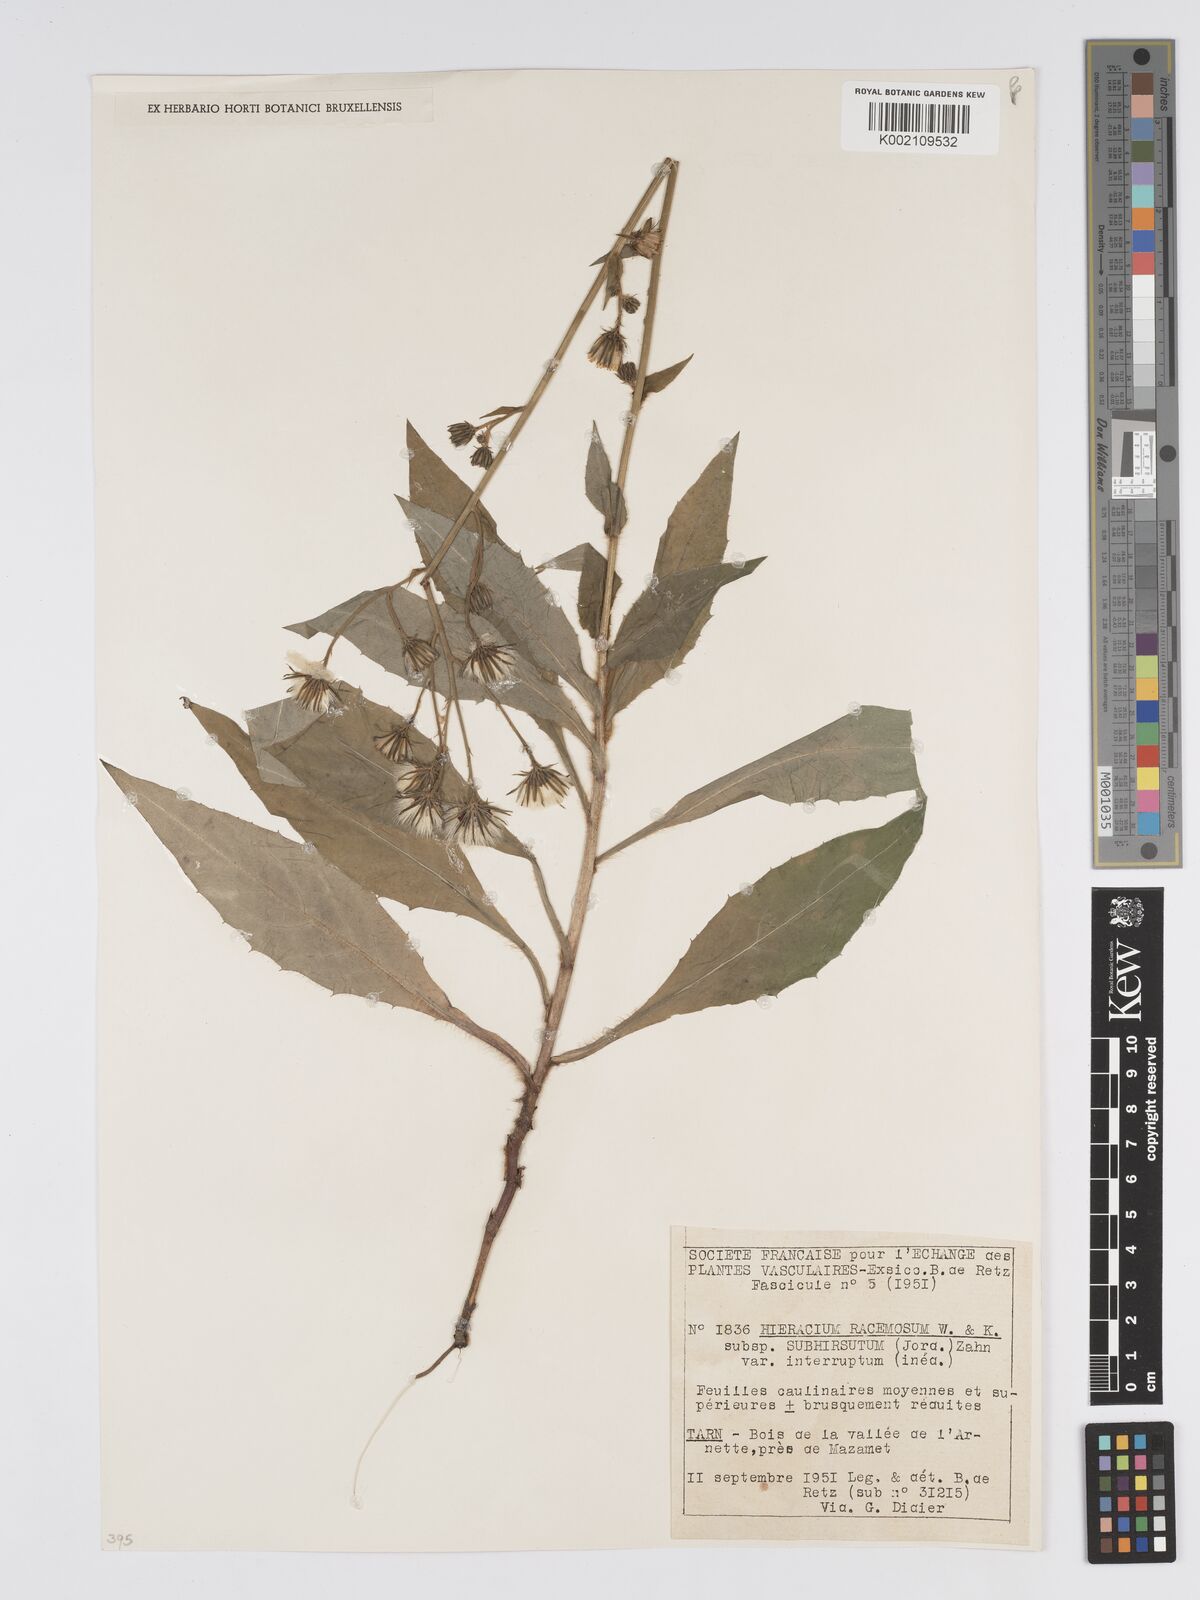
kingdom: Plantae
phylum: Tracheophyta
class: Magnoliopsida
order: Asterales
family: Asteraceae
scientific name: Asteraceae
